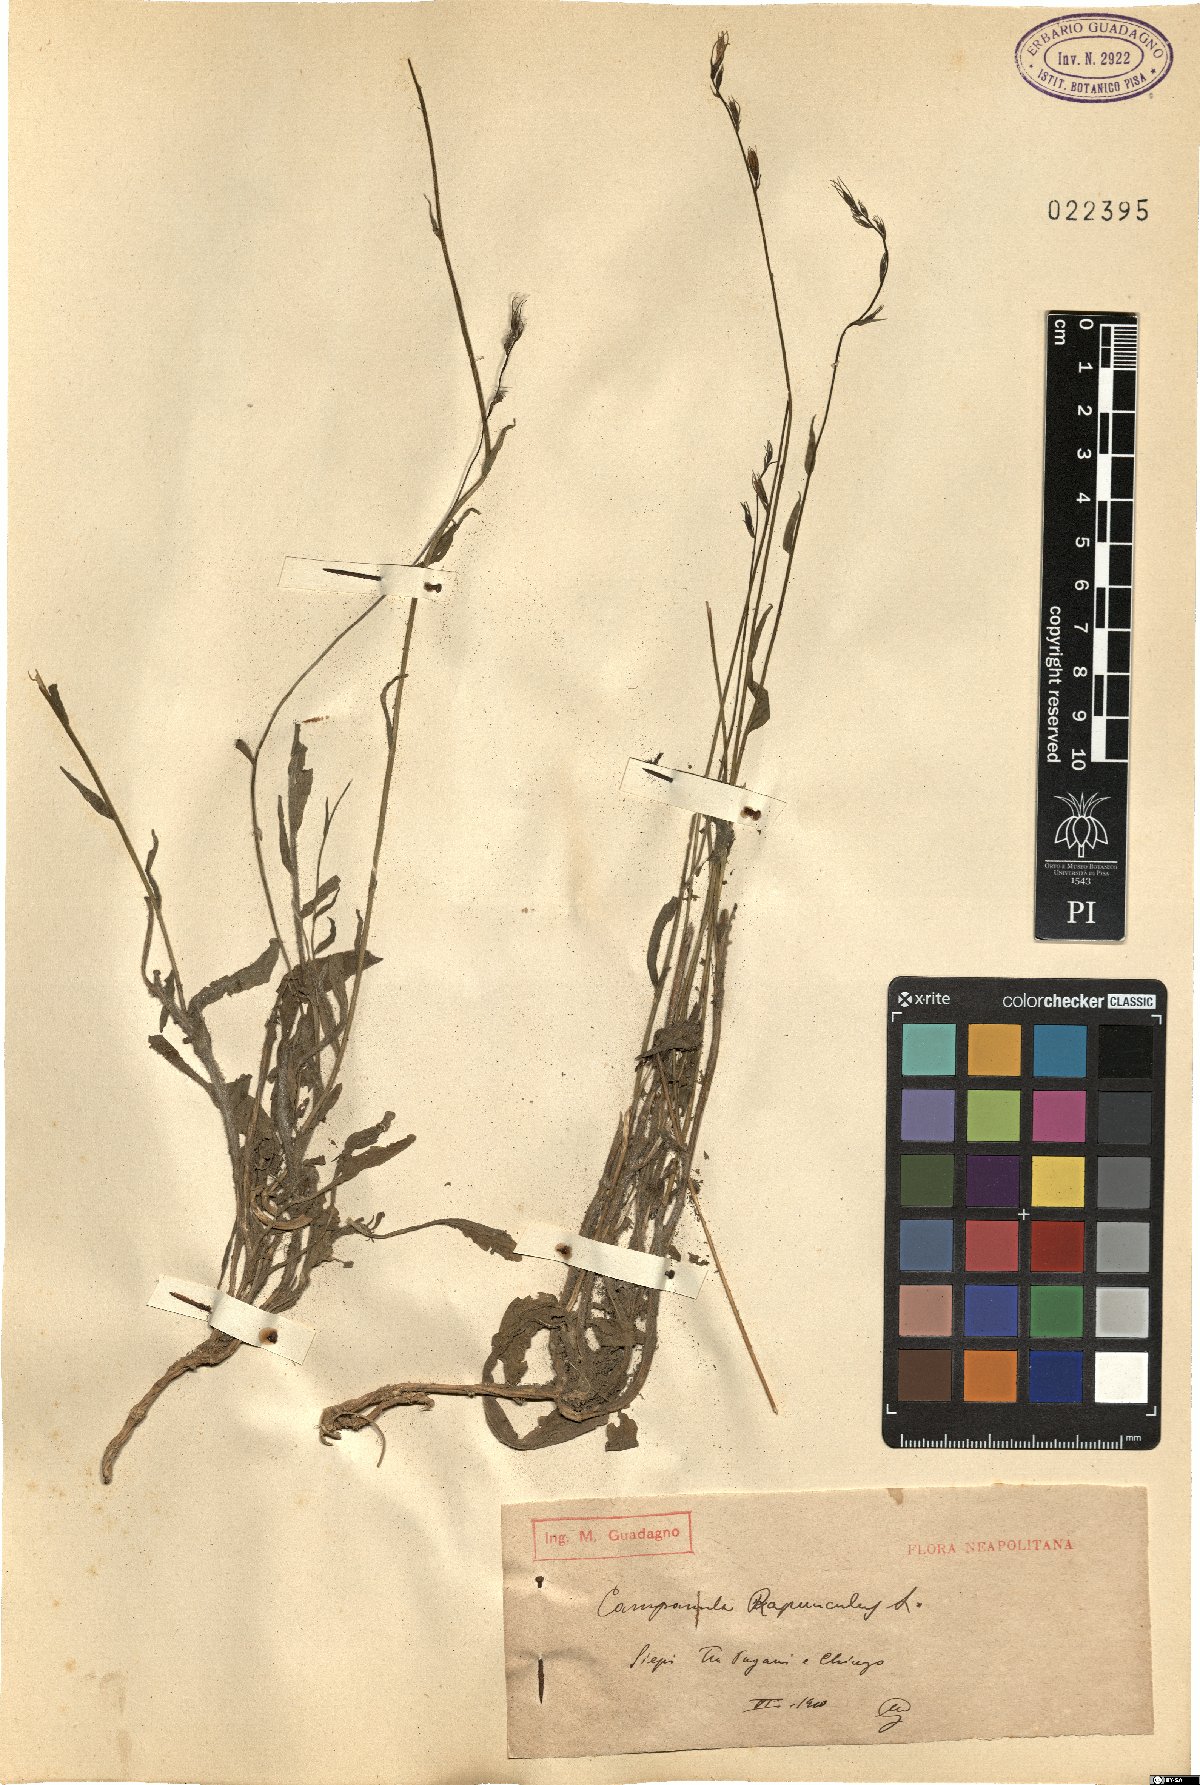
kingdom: Plantae
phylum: Tracheophyta
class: Magnoliopsida
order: Asterales
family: Campanulaceae
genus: Campanula
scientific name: Campanula rapunculus
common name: Rampion bellflower
